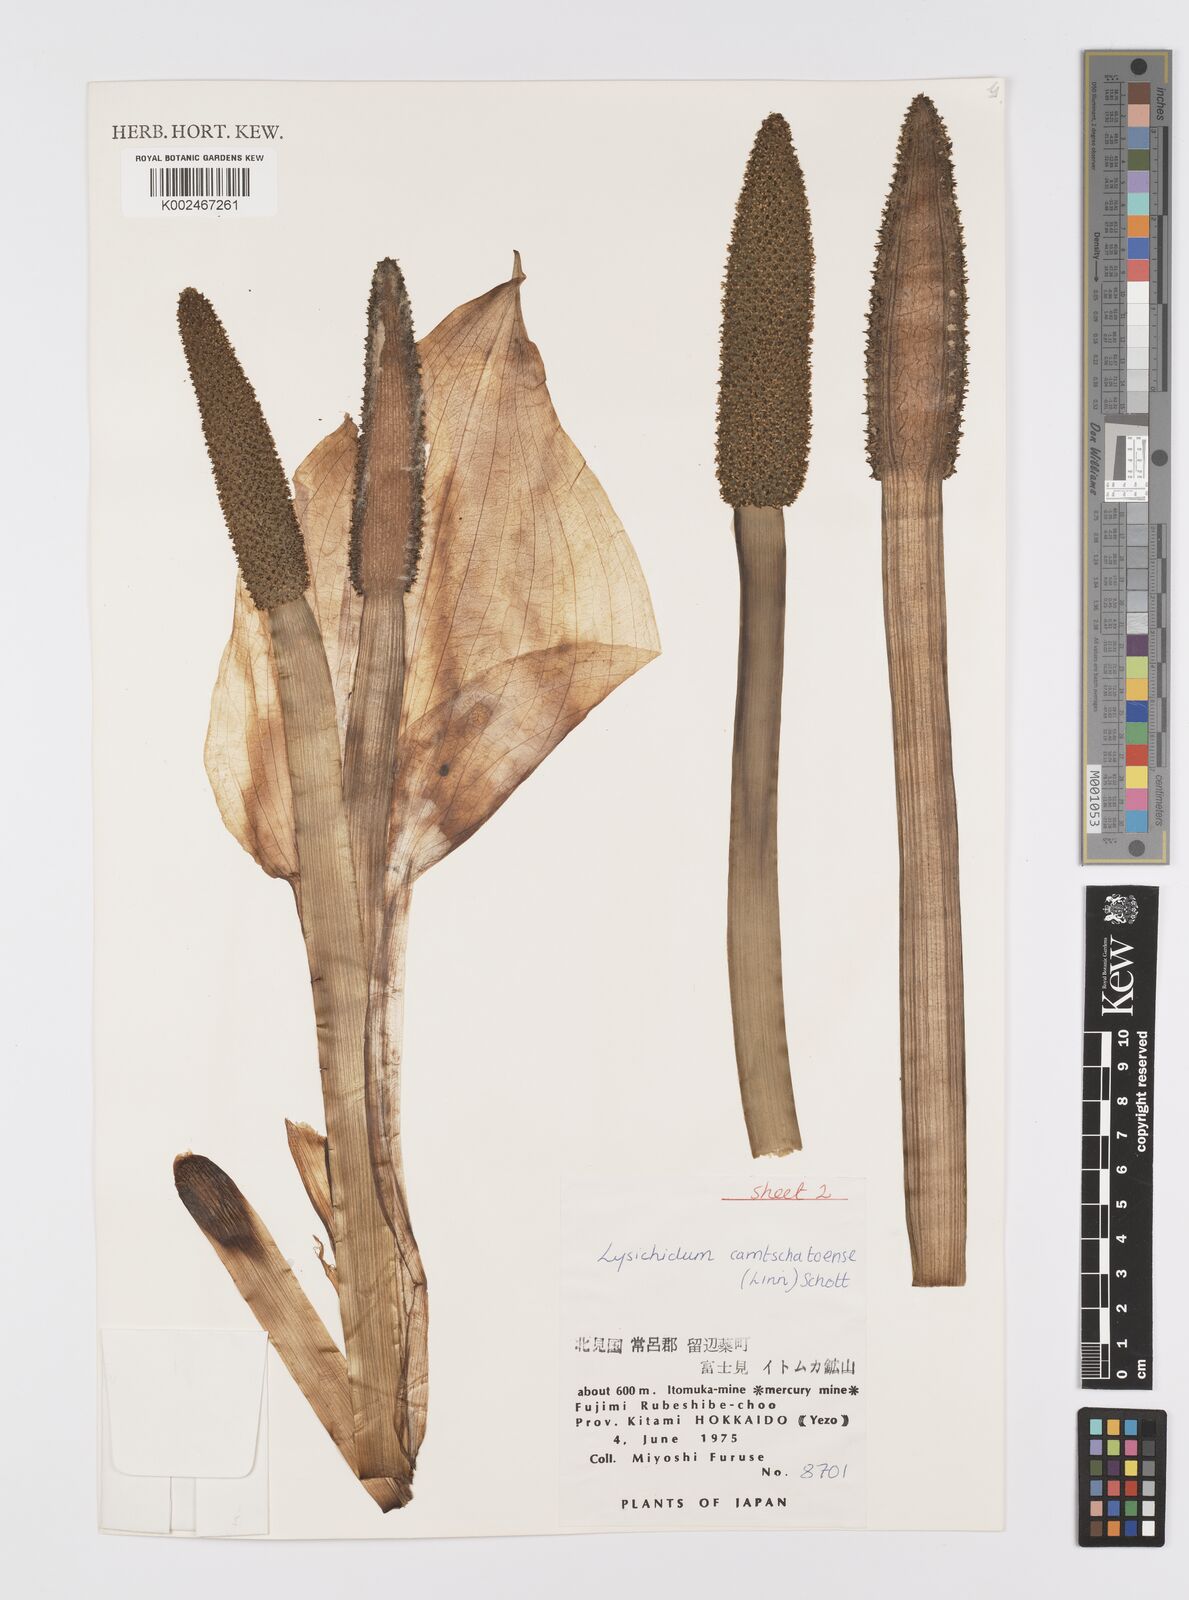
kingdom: Plantae
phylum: Tracheophyta
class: Liliopsida
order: Alismatales
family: Araceae
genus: Lysichiton
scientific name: Lysichiton camtschatcensis
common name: Asian skunk-cabbage
